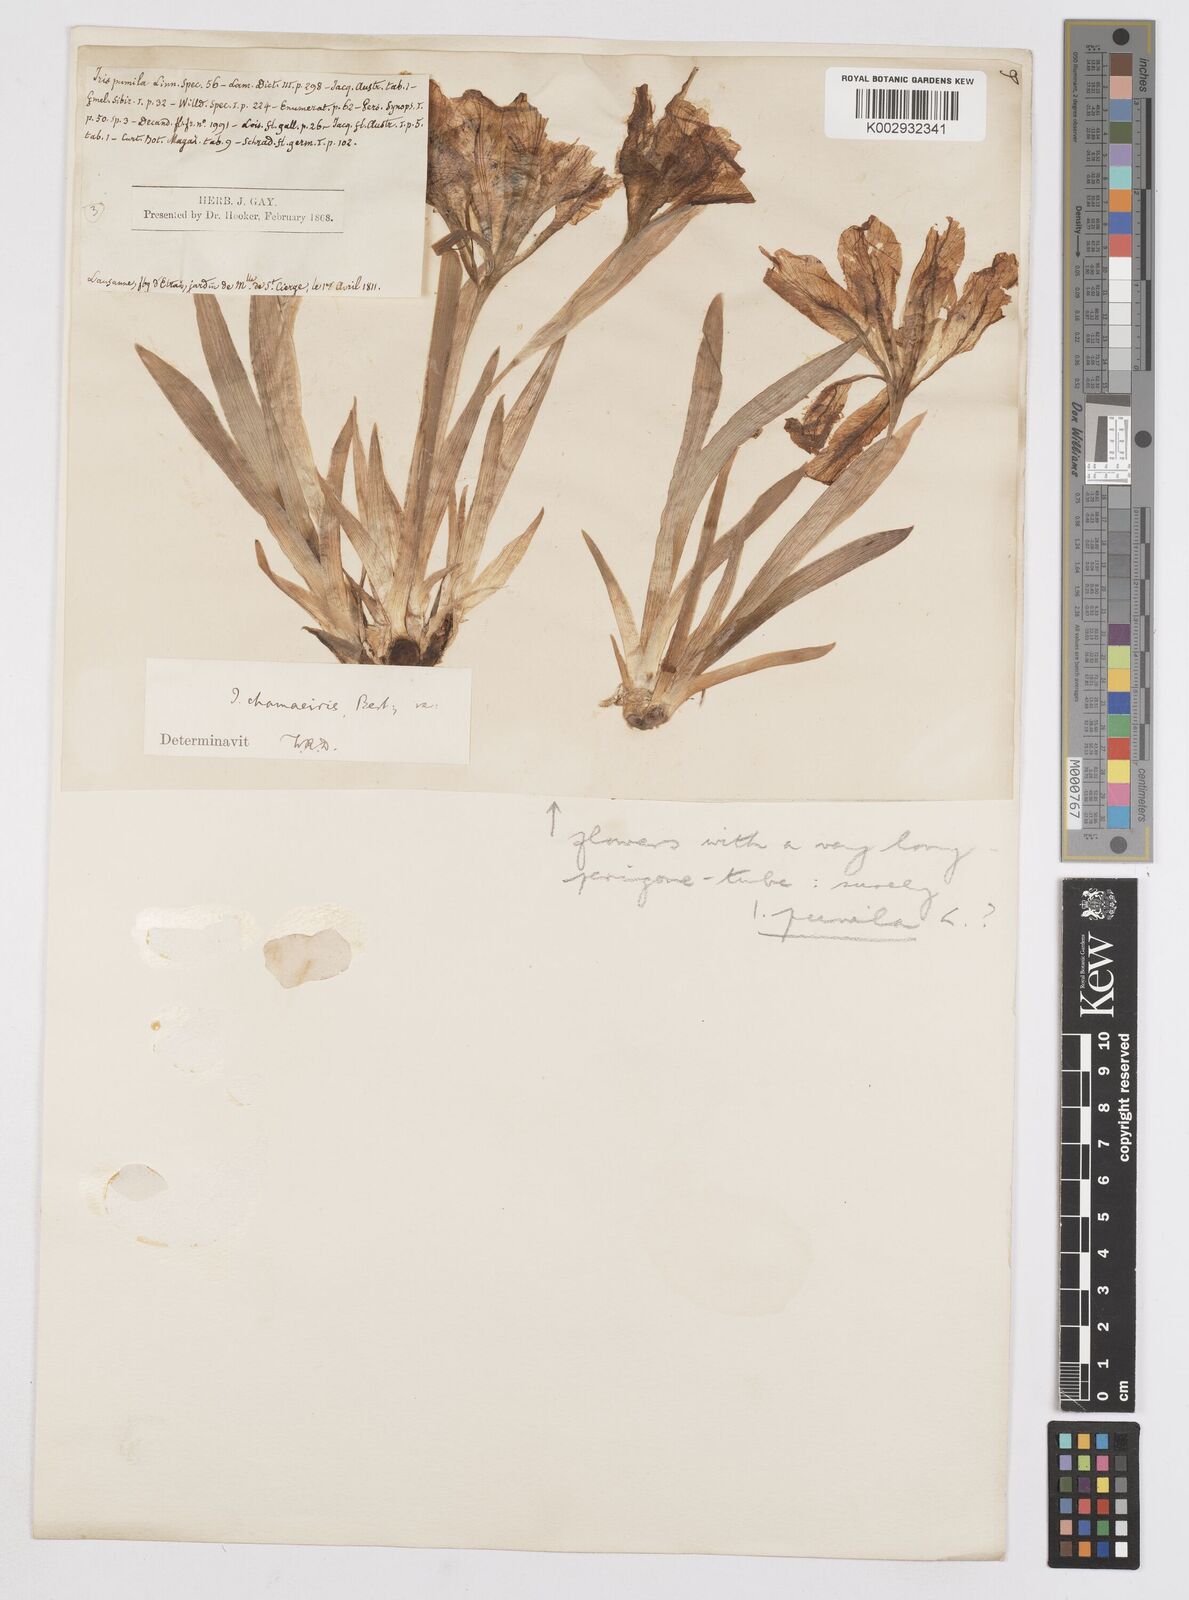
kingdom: Plantae
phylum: Tracheophyta
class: Liliopsida
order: Asparagales
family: Iridaceae
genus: Iris
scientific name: Iris pumila
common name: Dwarf iris
